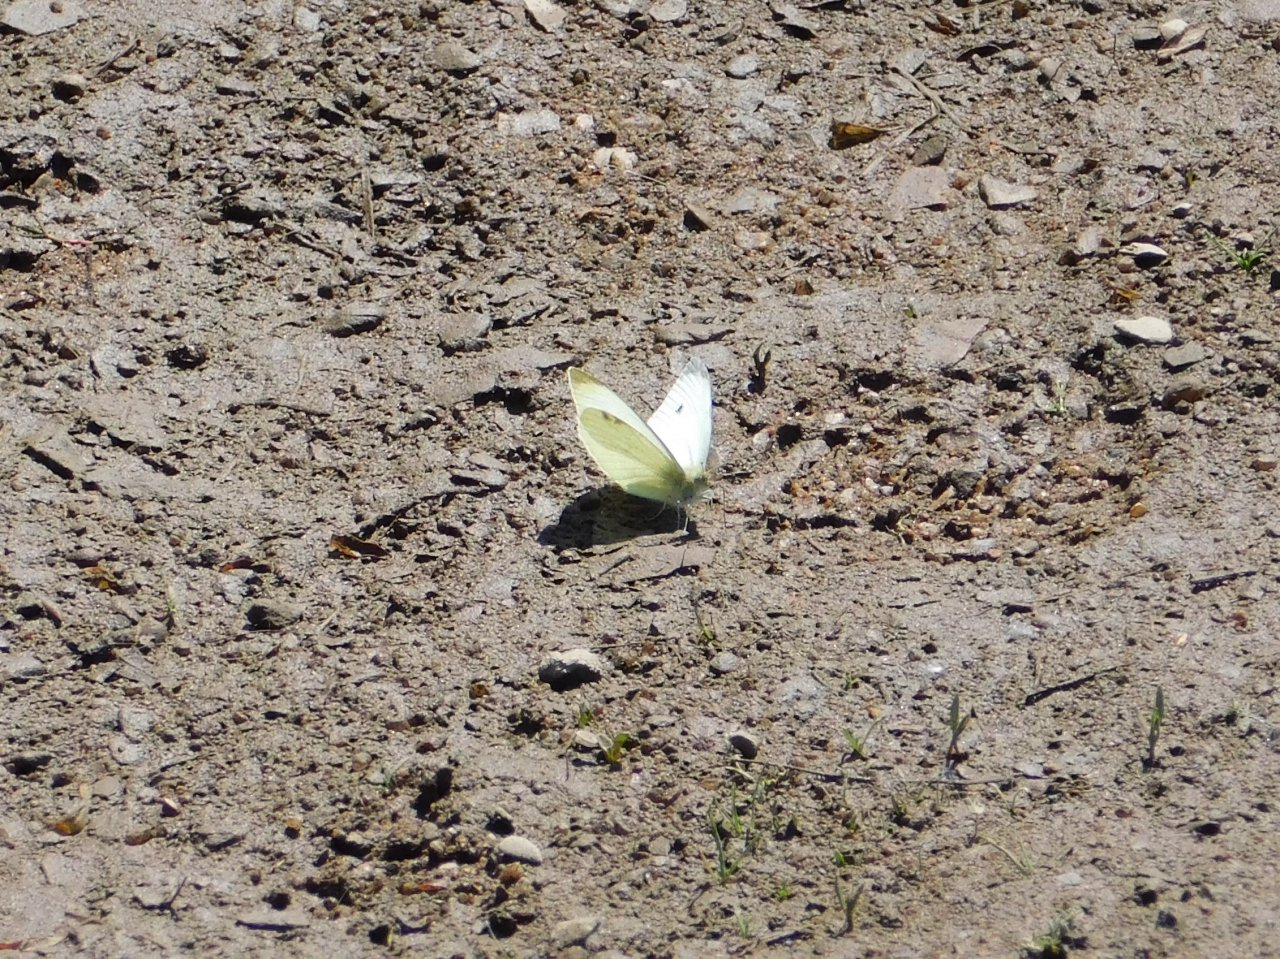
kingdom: Animalia
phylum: Arthropoda
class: Insecta
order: Lepidoptera
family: Pieridae
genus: Pieris
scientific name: Pieris rapae
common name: Cabbage White
